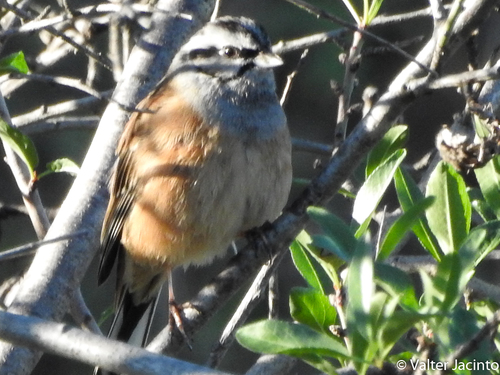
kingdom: Animalia
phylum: Chordata
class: Aves
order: Passeriformes
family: Emberizidae
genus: Emberiza
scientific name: Emberiza cia
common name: Rock bunting
